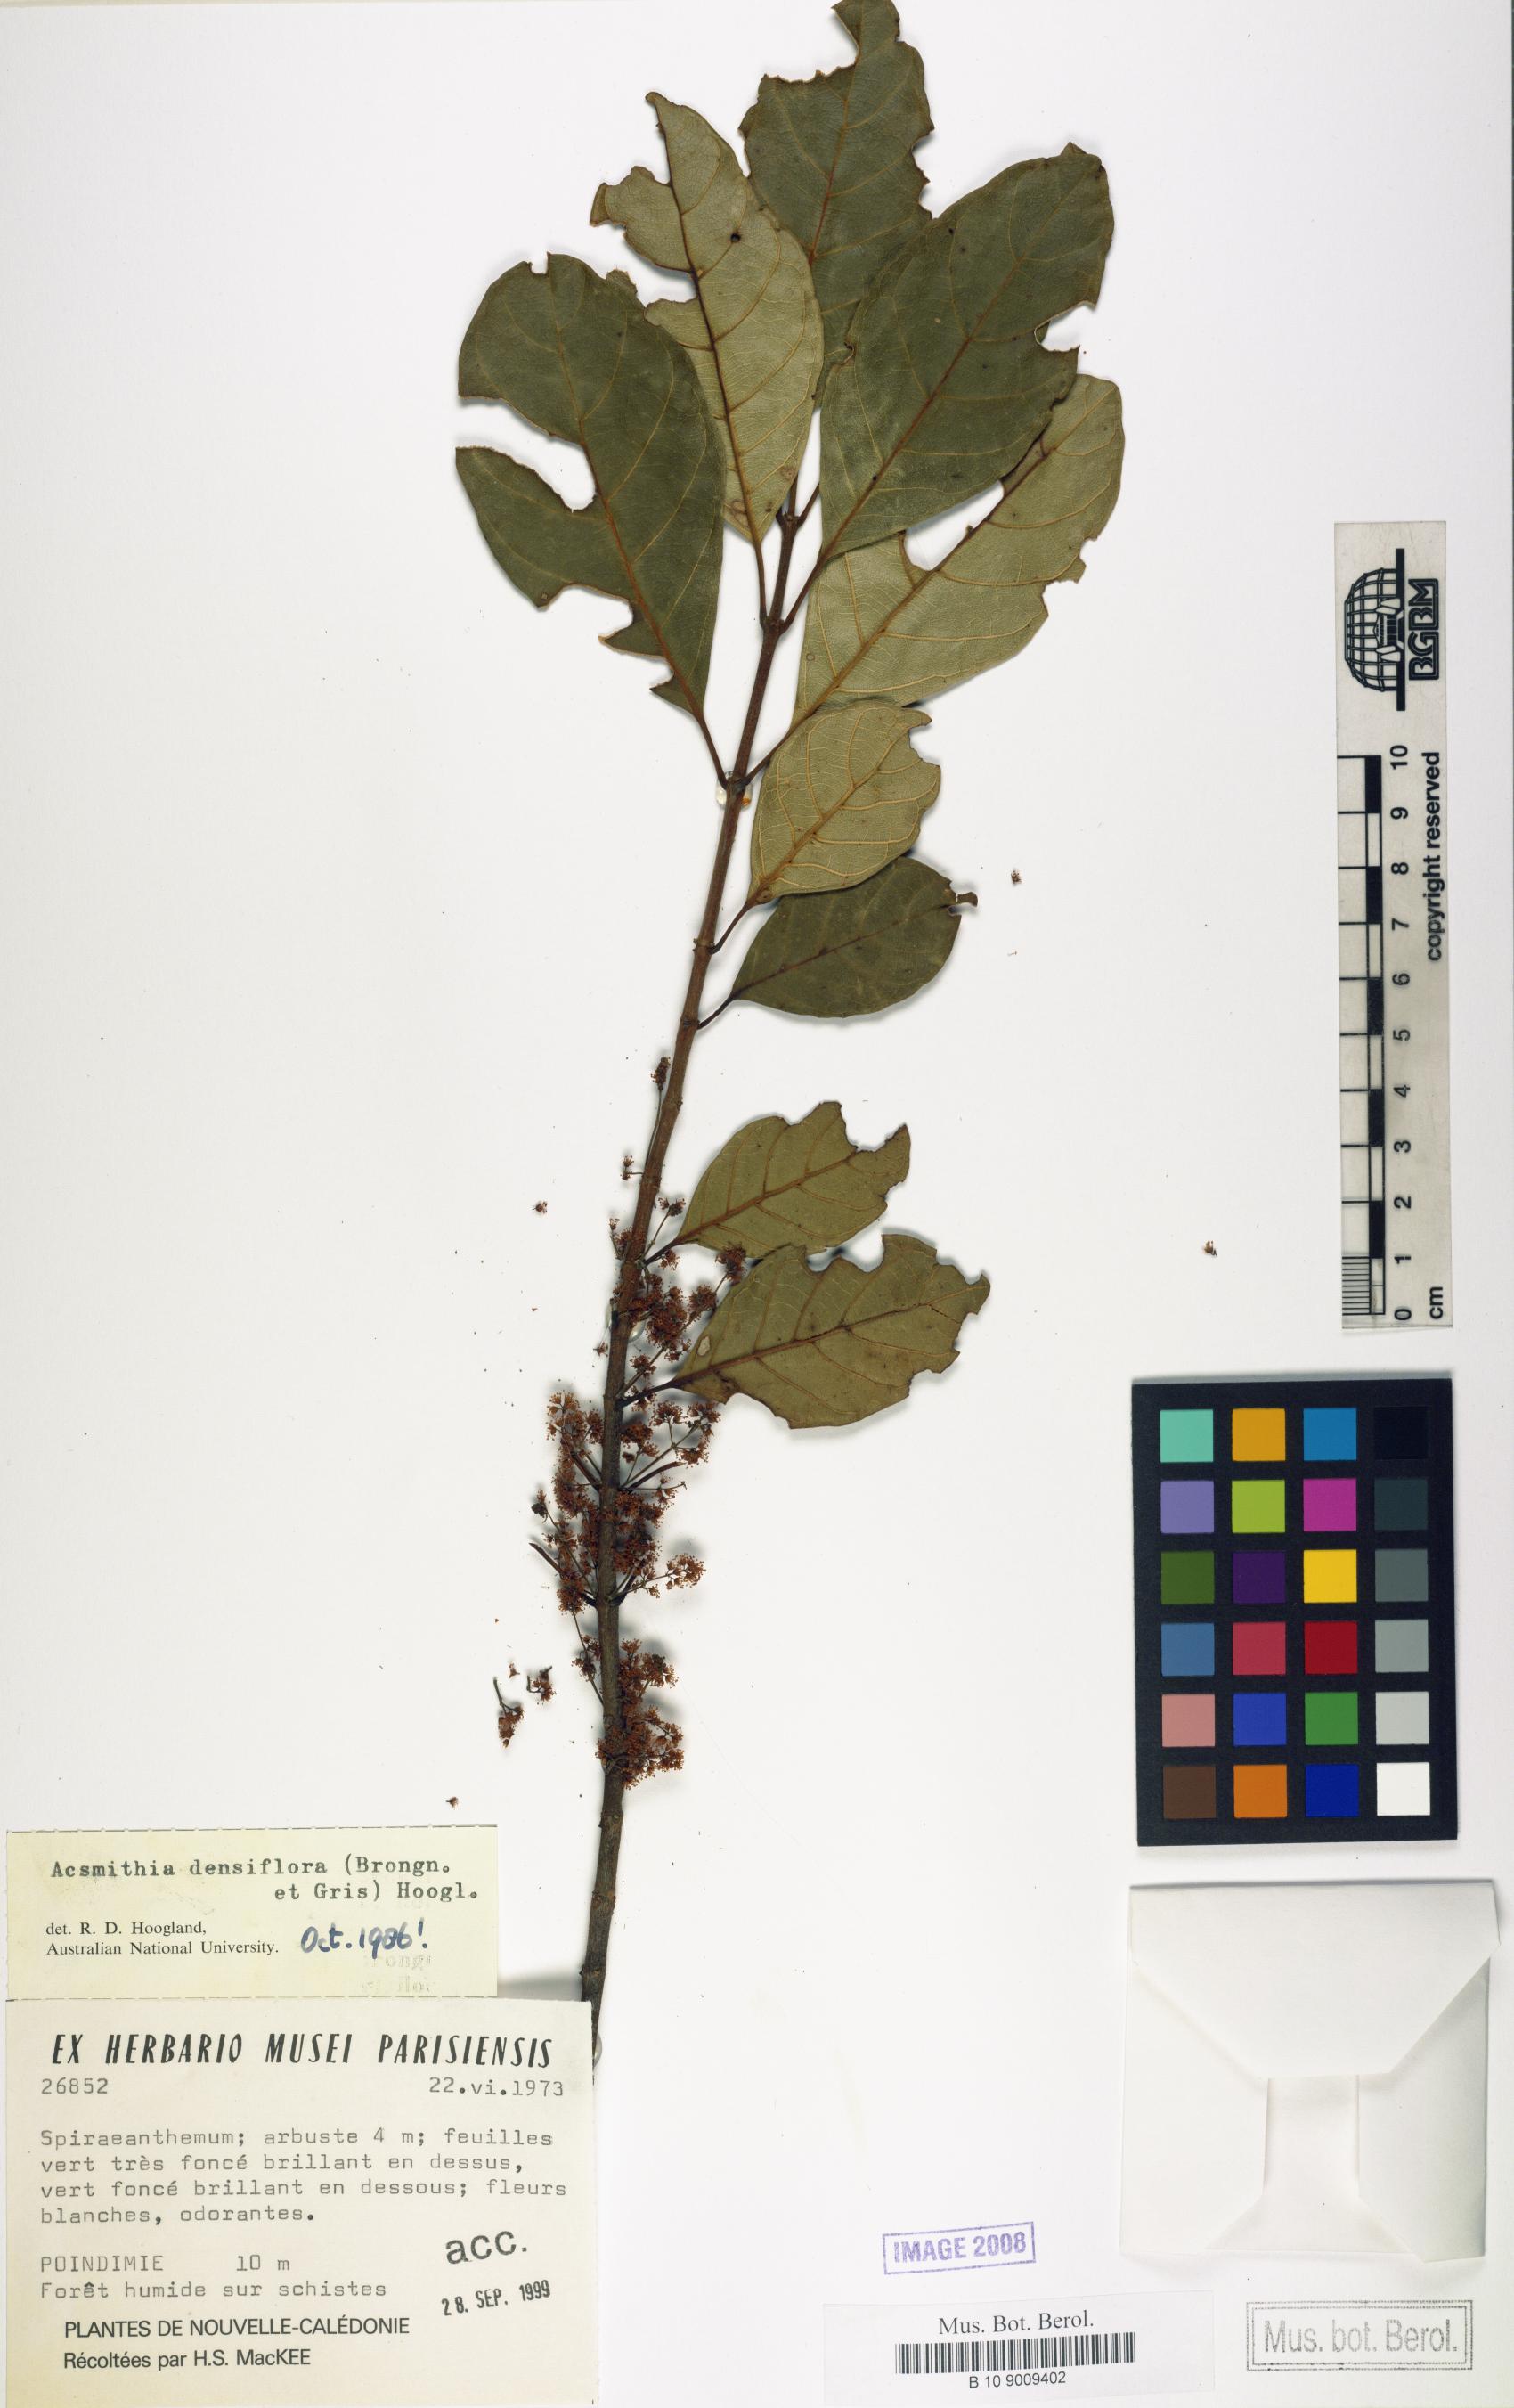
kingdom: Plantae
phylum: Tracheophyta
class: Magnoliopsida
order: Oxalidales
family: Cunoniaceae
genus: Spiraeanthemum
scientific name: Spiraeanthemum densiflorum
